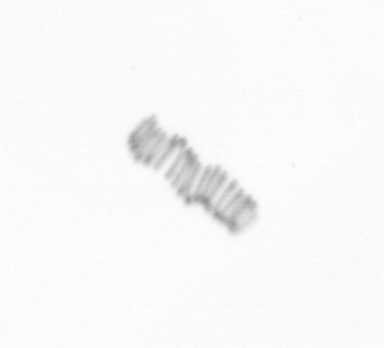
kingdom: Chromista
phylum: Ochrophyta
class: Bacillariophyceae
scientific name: Bacillariophyceae
